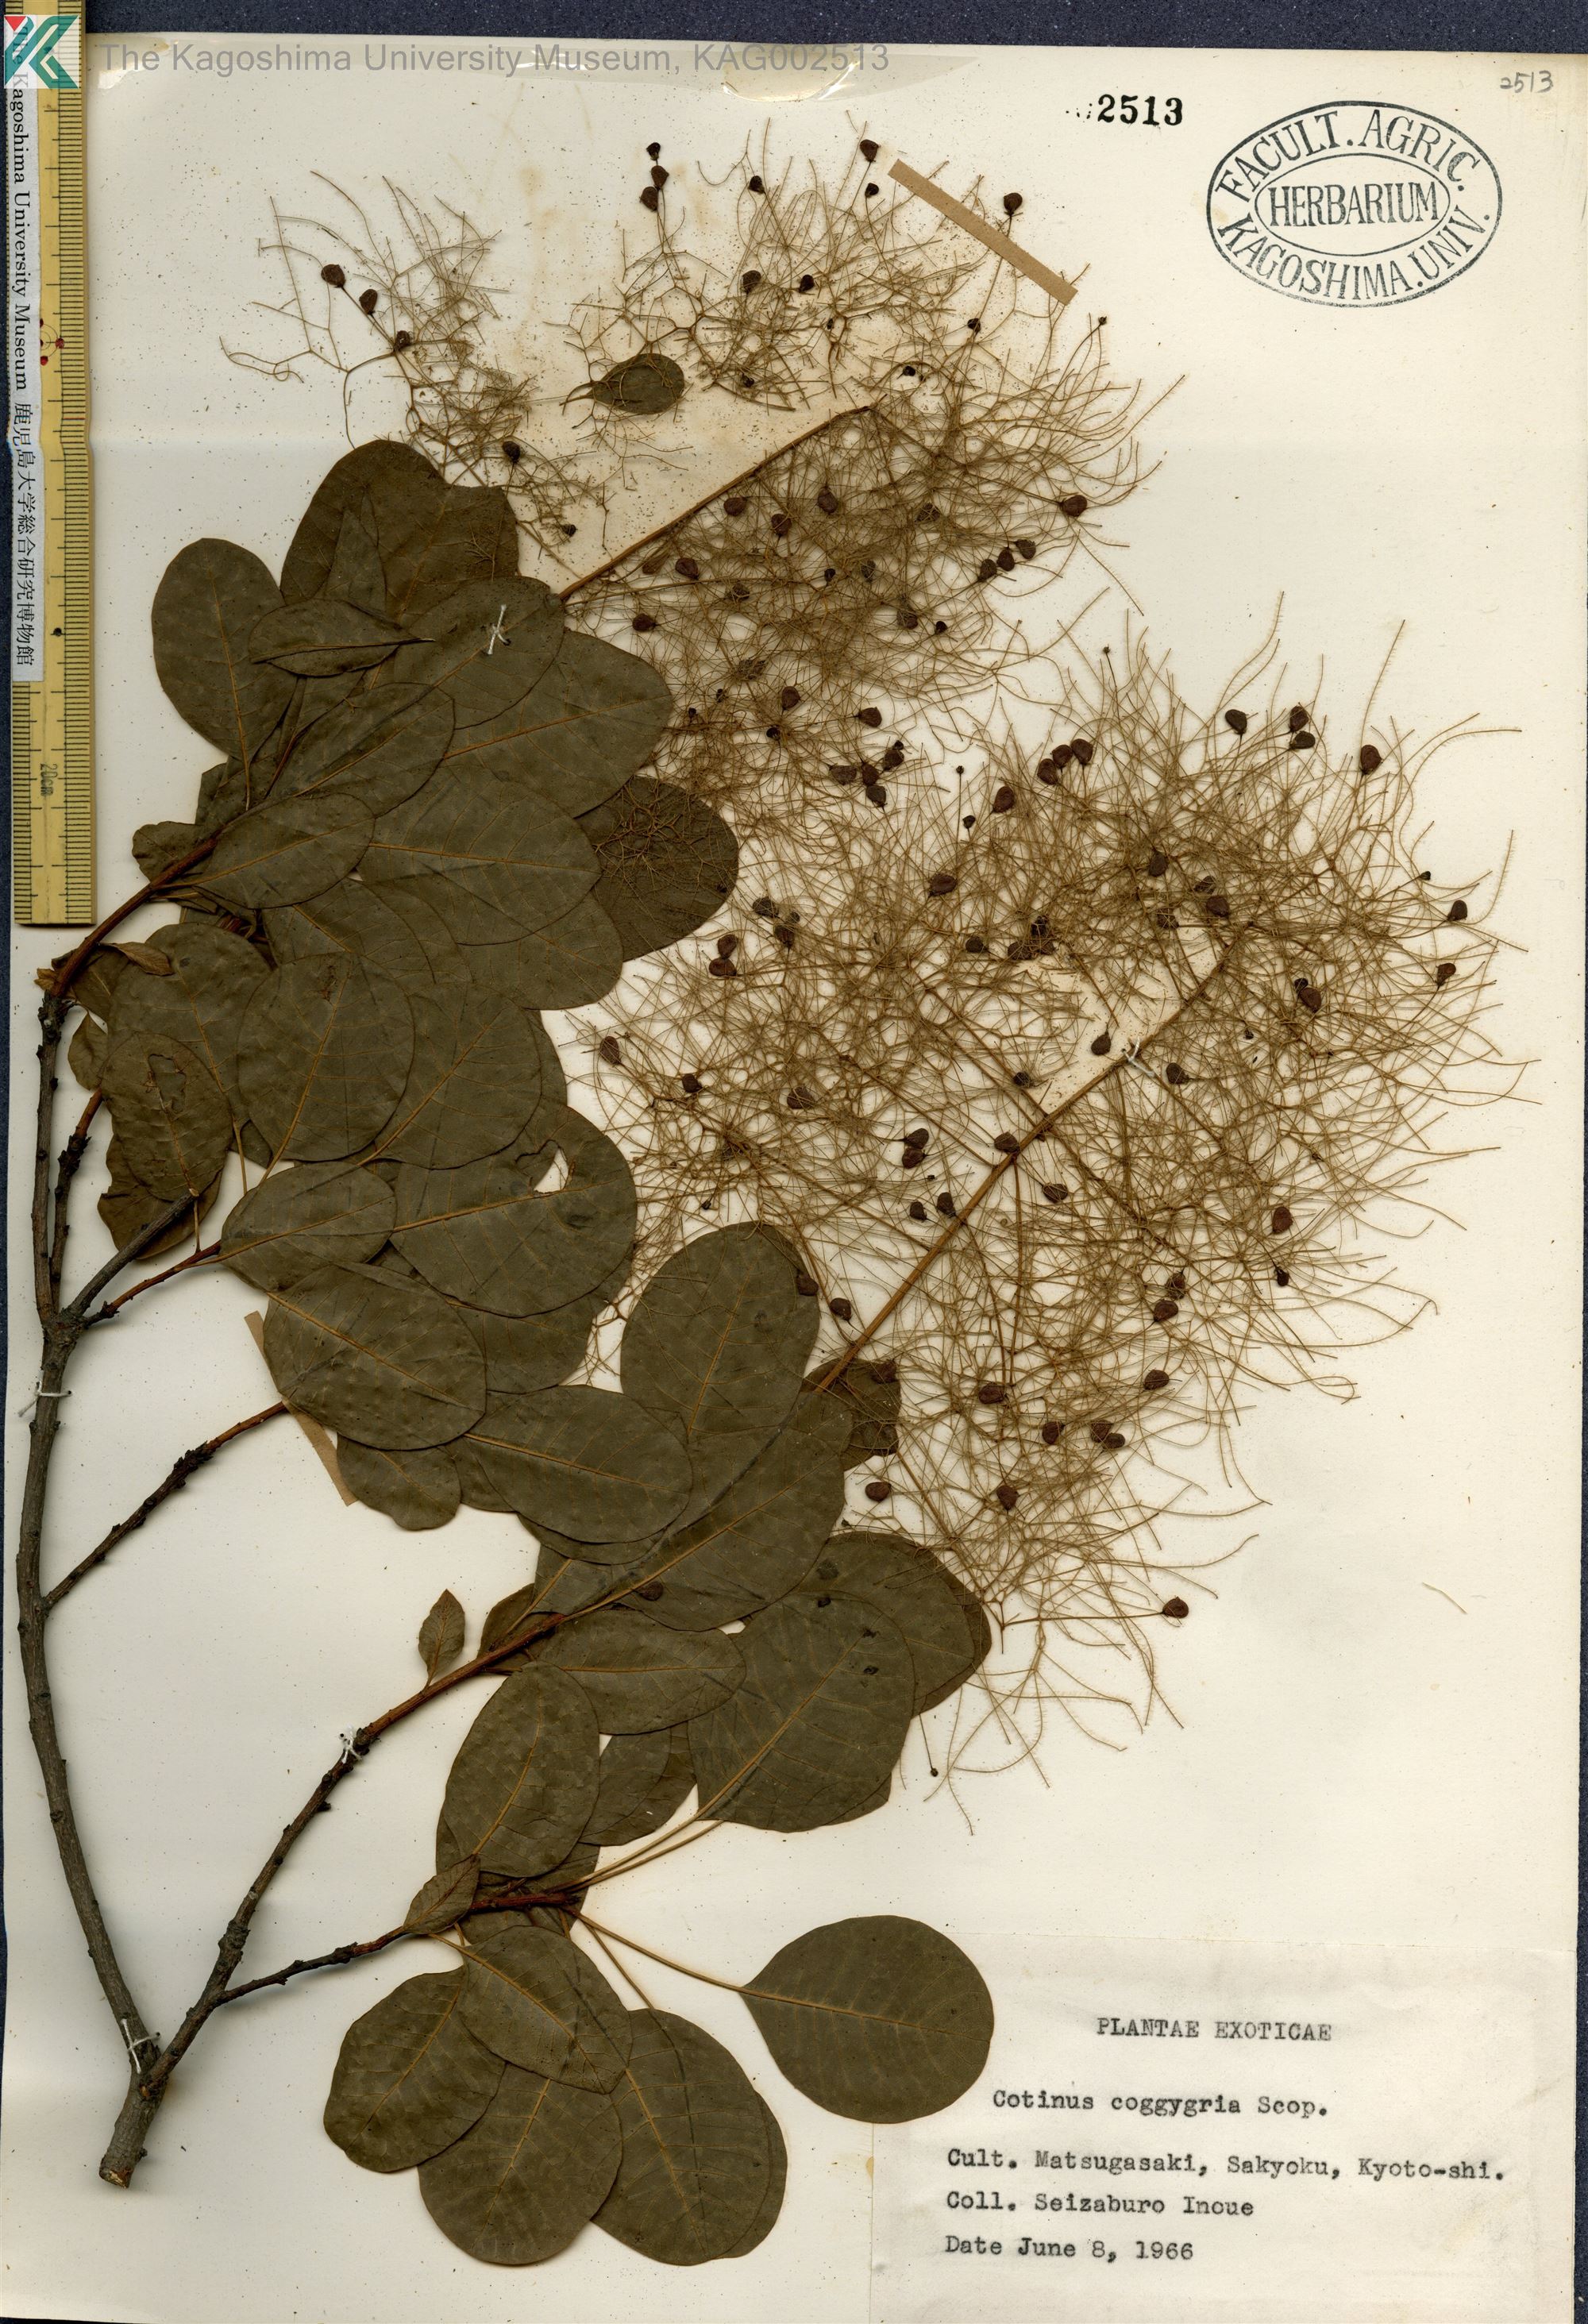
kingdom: Plantae
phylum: Tracheophyta
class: Magnoliopsida
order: Sapindales
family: Anacardiaceae
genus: Cotinus
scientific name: Cotinus coggygria
